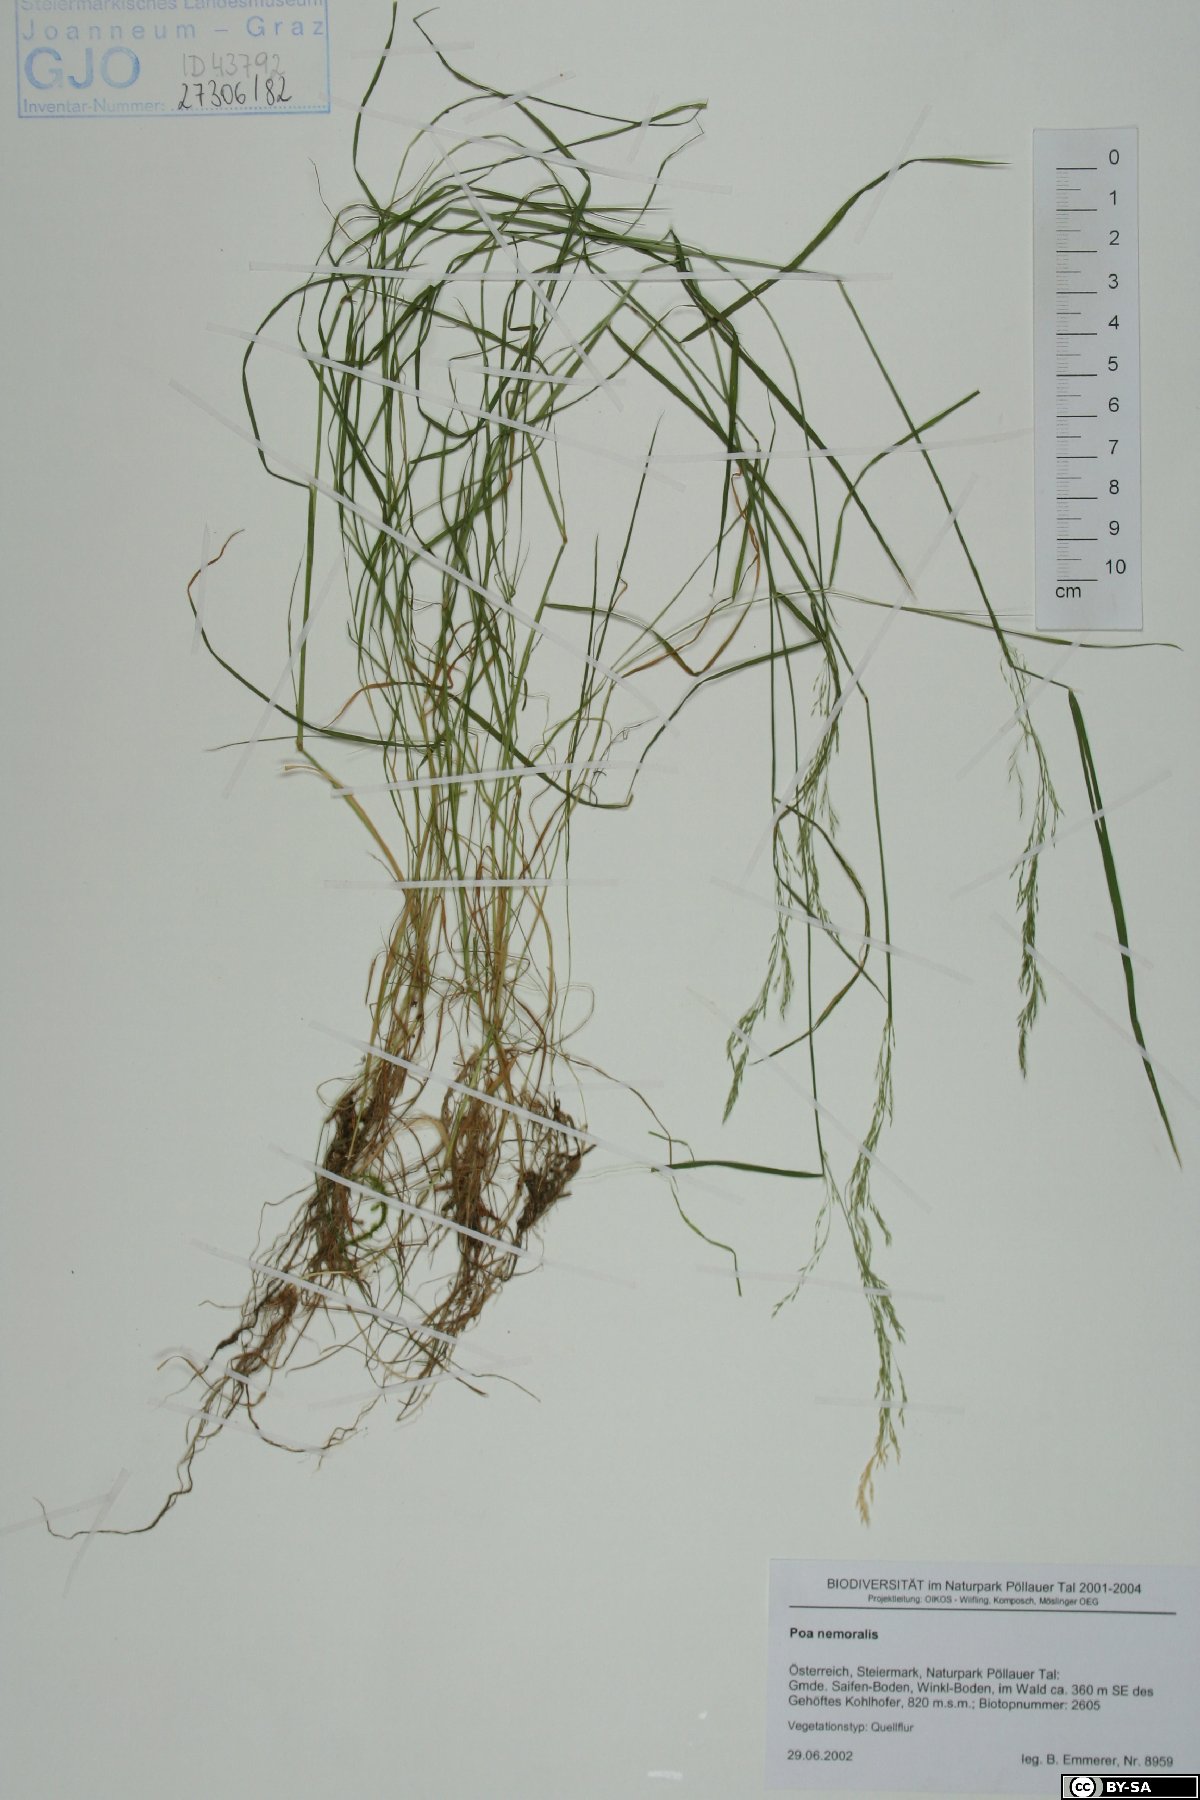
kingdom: Plantae
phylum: Tracheophyta
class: Liliopsida
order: Poales
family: Poaceae
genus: Poa
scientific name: Poa nemoralis
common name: Wood bluegrass
